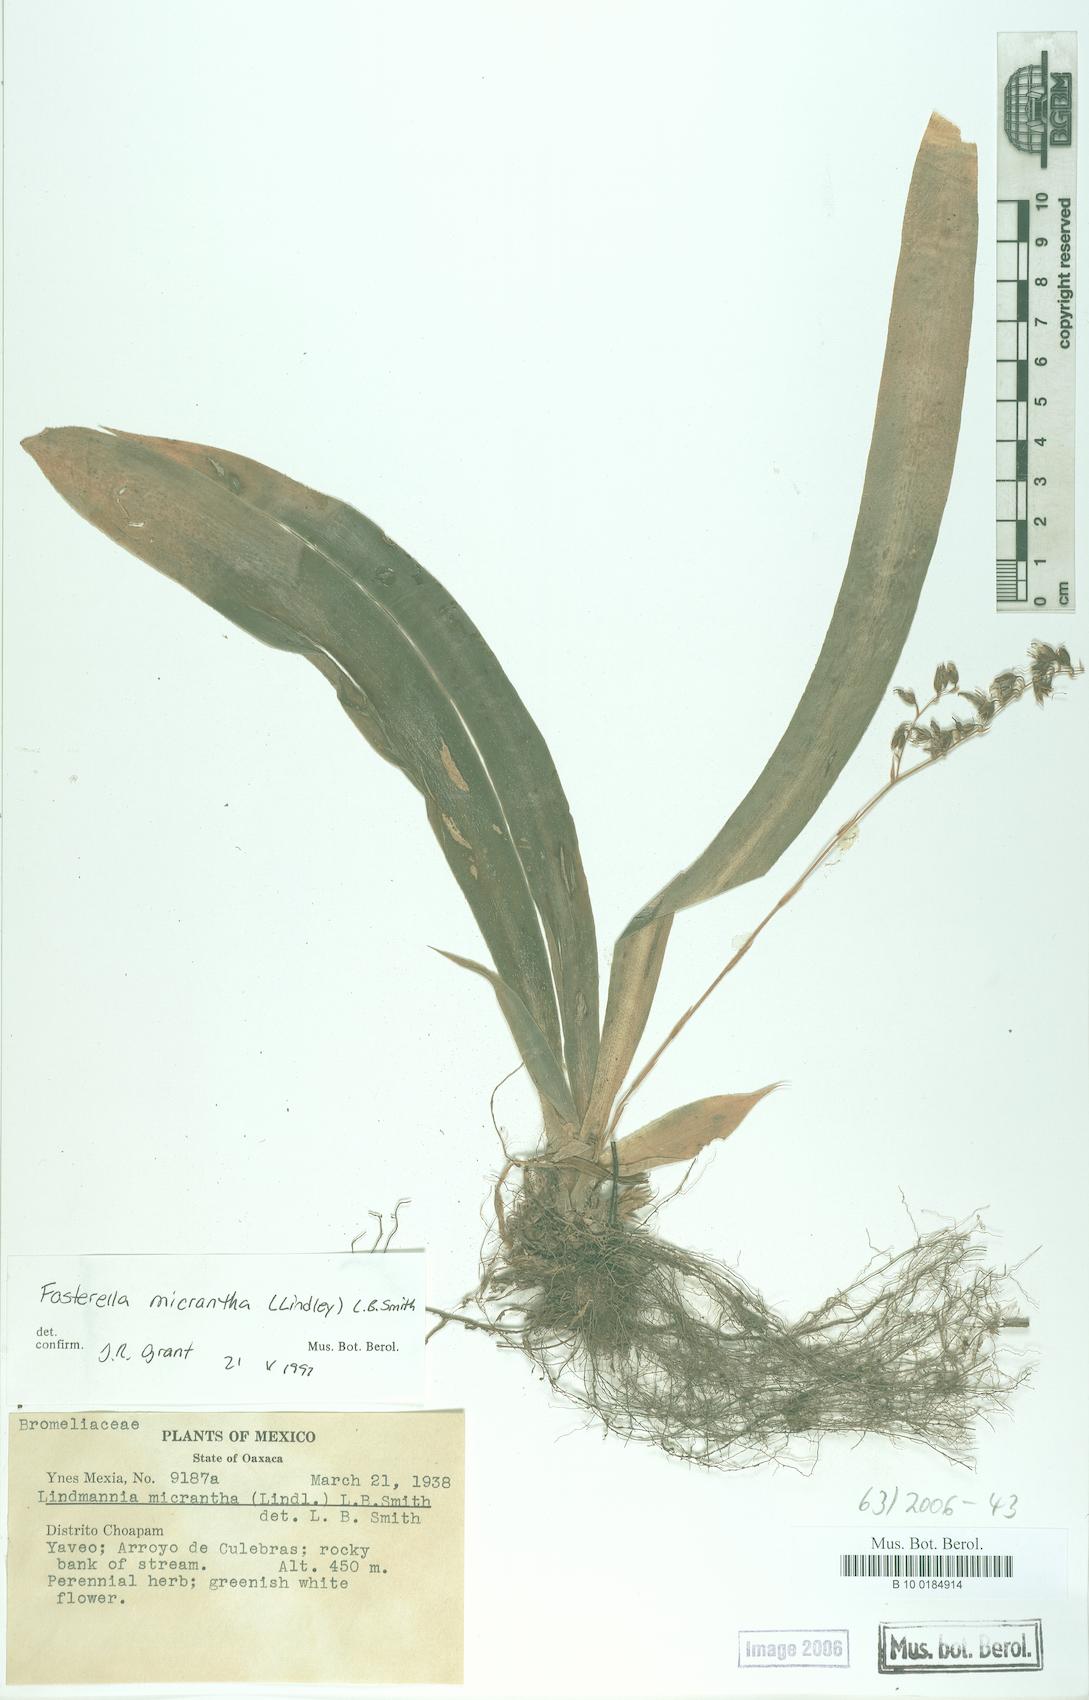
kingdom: Plantae
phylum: Tracheophyta
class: Liliopsida
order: Poales
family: Bromeliaceae
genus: Fosterella
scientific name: Fosterella micrantha
